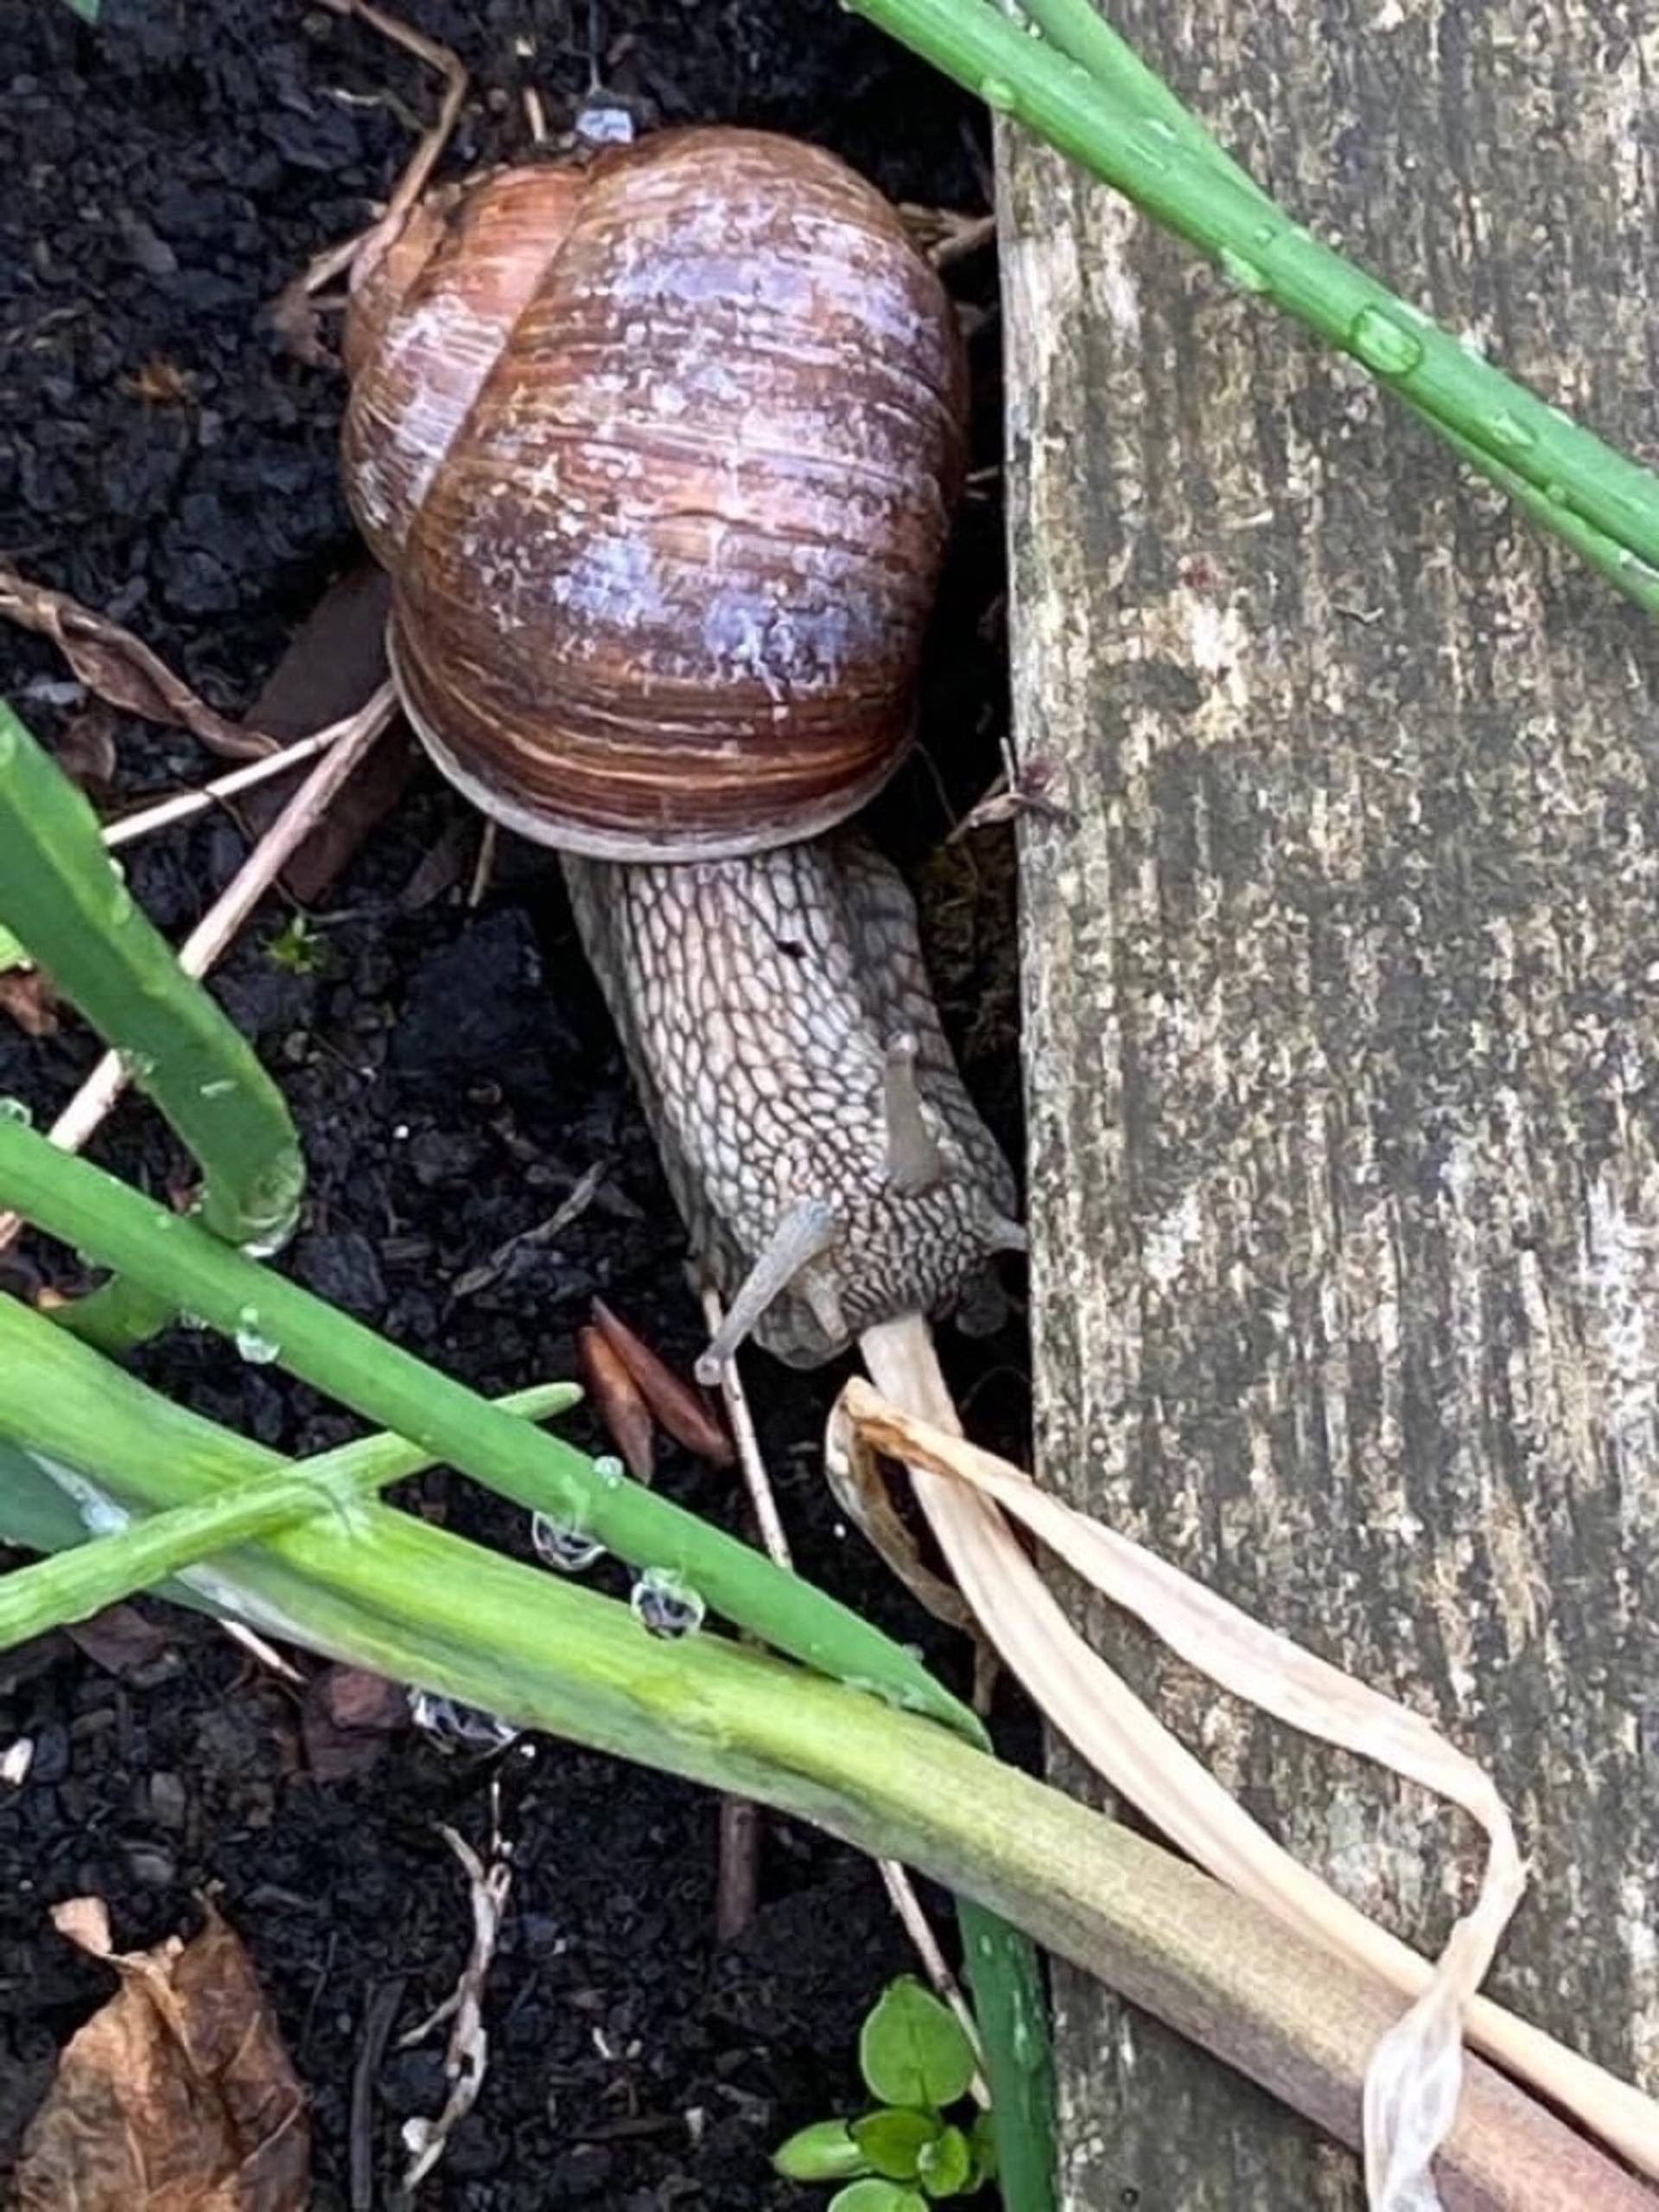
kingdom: Animalia
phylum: Mollusca
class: Gastropoda
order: Stylommatophora
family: Helicidae
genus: Helix
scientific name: Helix pomatia
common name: Vinbjergsnegl
